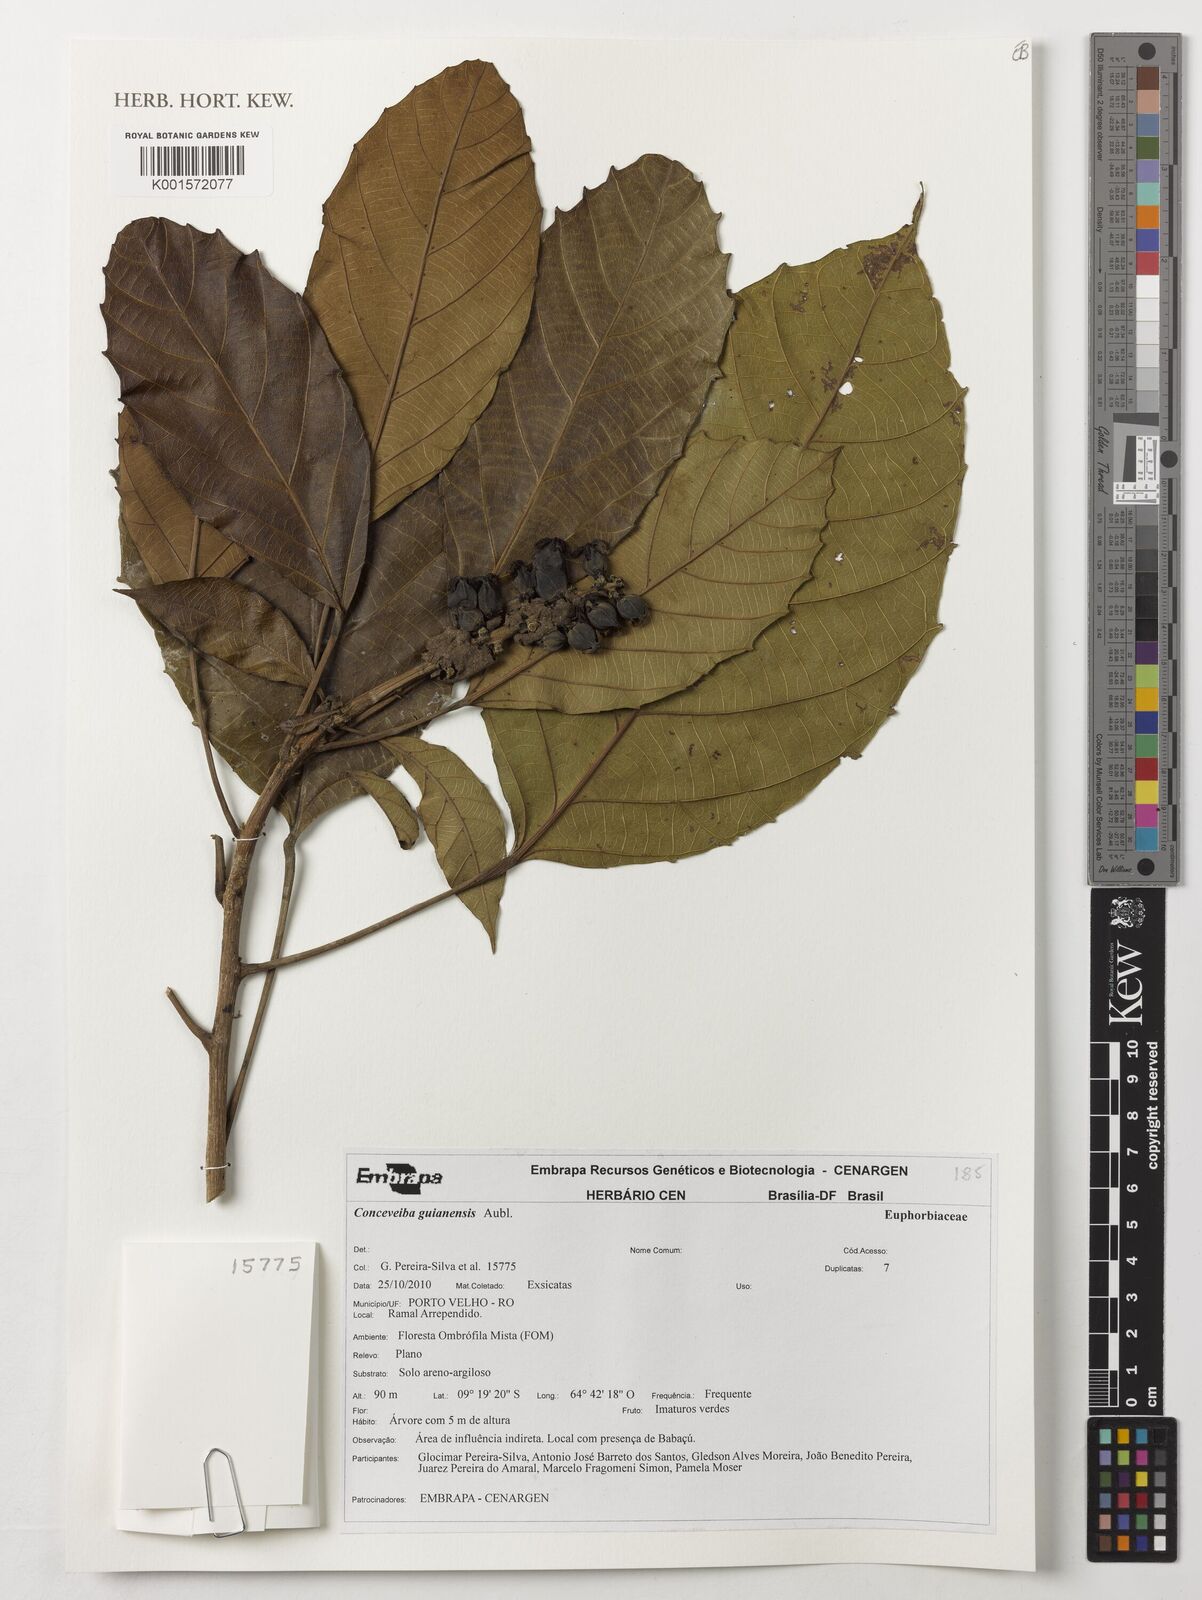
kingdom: Plantae
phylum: Tracheophyta
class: Magnoliopsida
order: Malpighiales
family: Euphorbiaceae
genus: Conceveiba
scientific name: Conceveiba guianensis
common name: Poatoru
